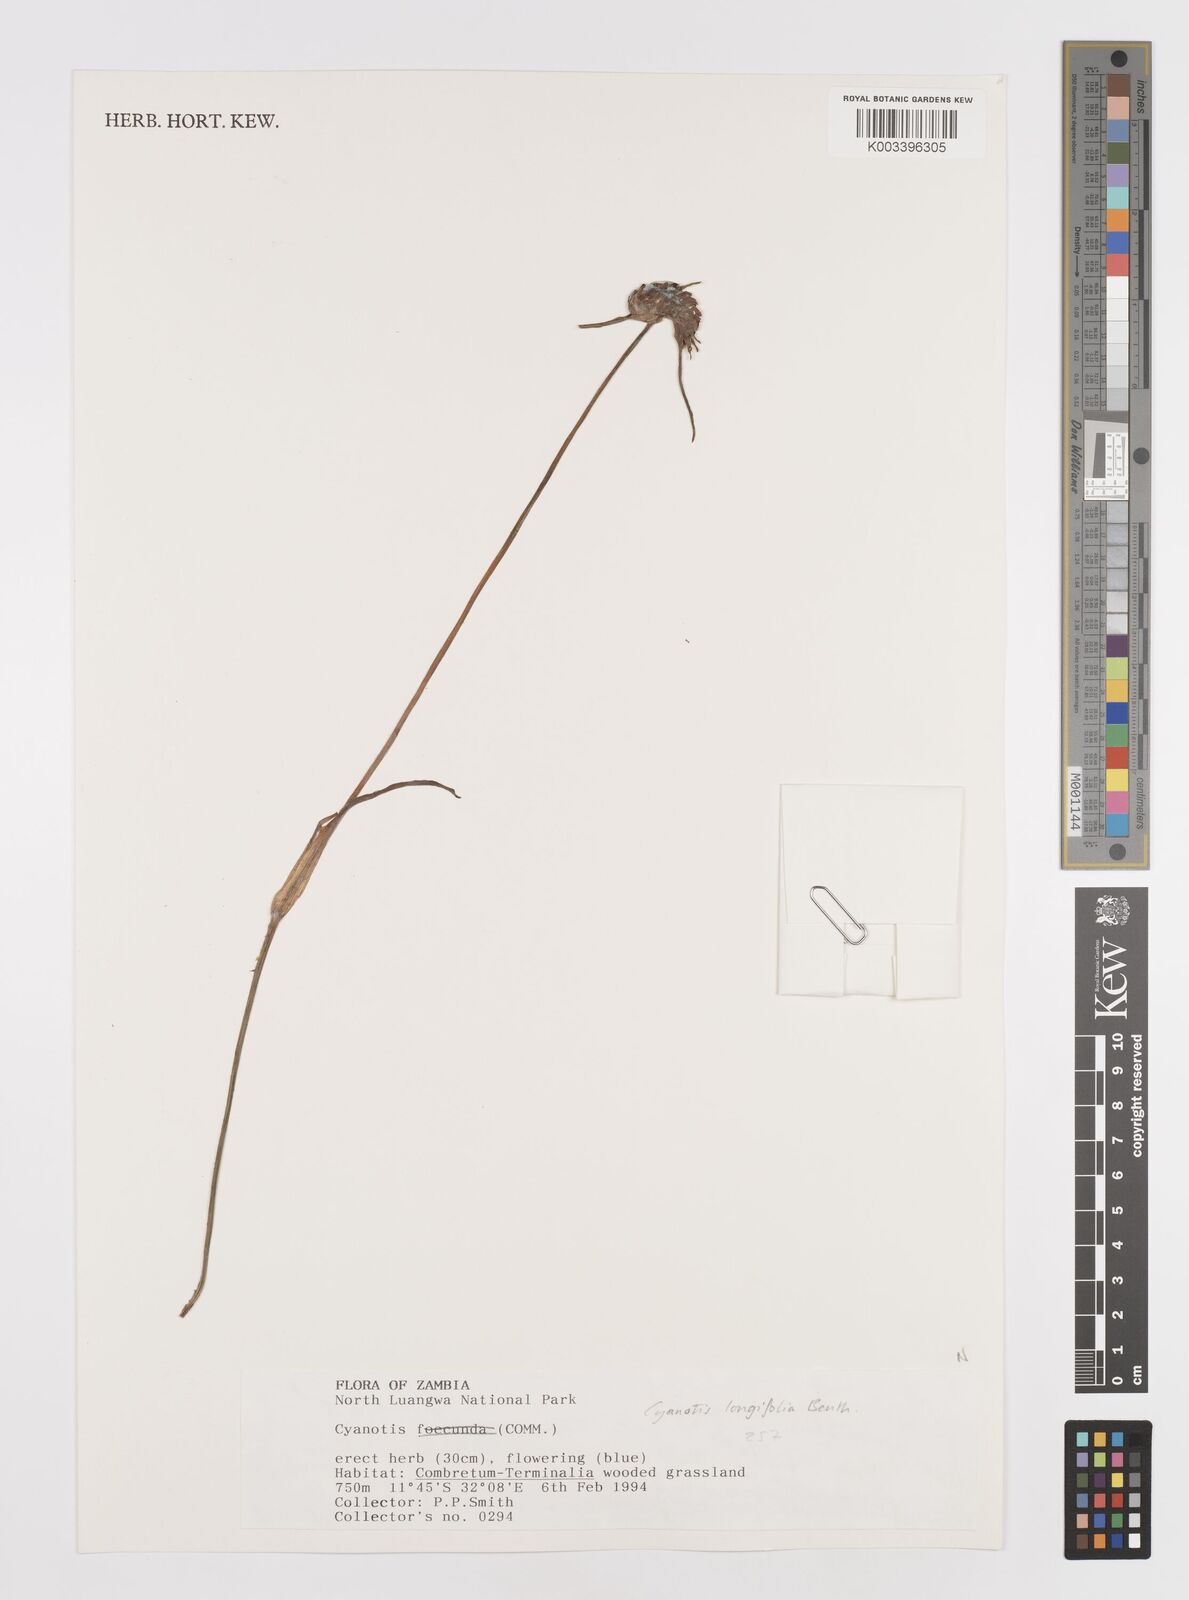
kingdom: Plantae
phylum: Tracheophyta
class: Liliopsida
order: Commelinales
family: Commelinaceae
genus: Cyanotis
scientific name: Cyanotis longifolia
